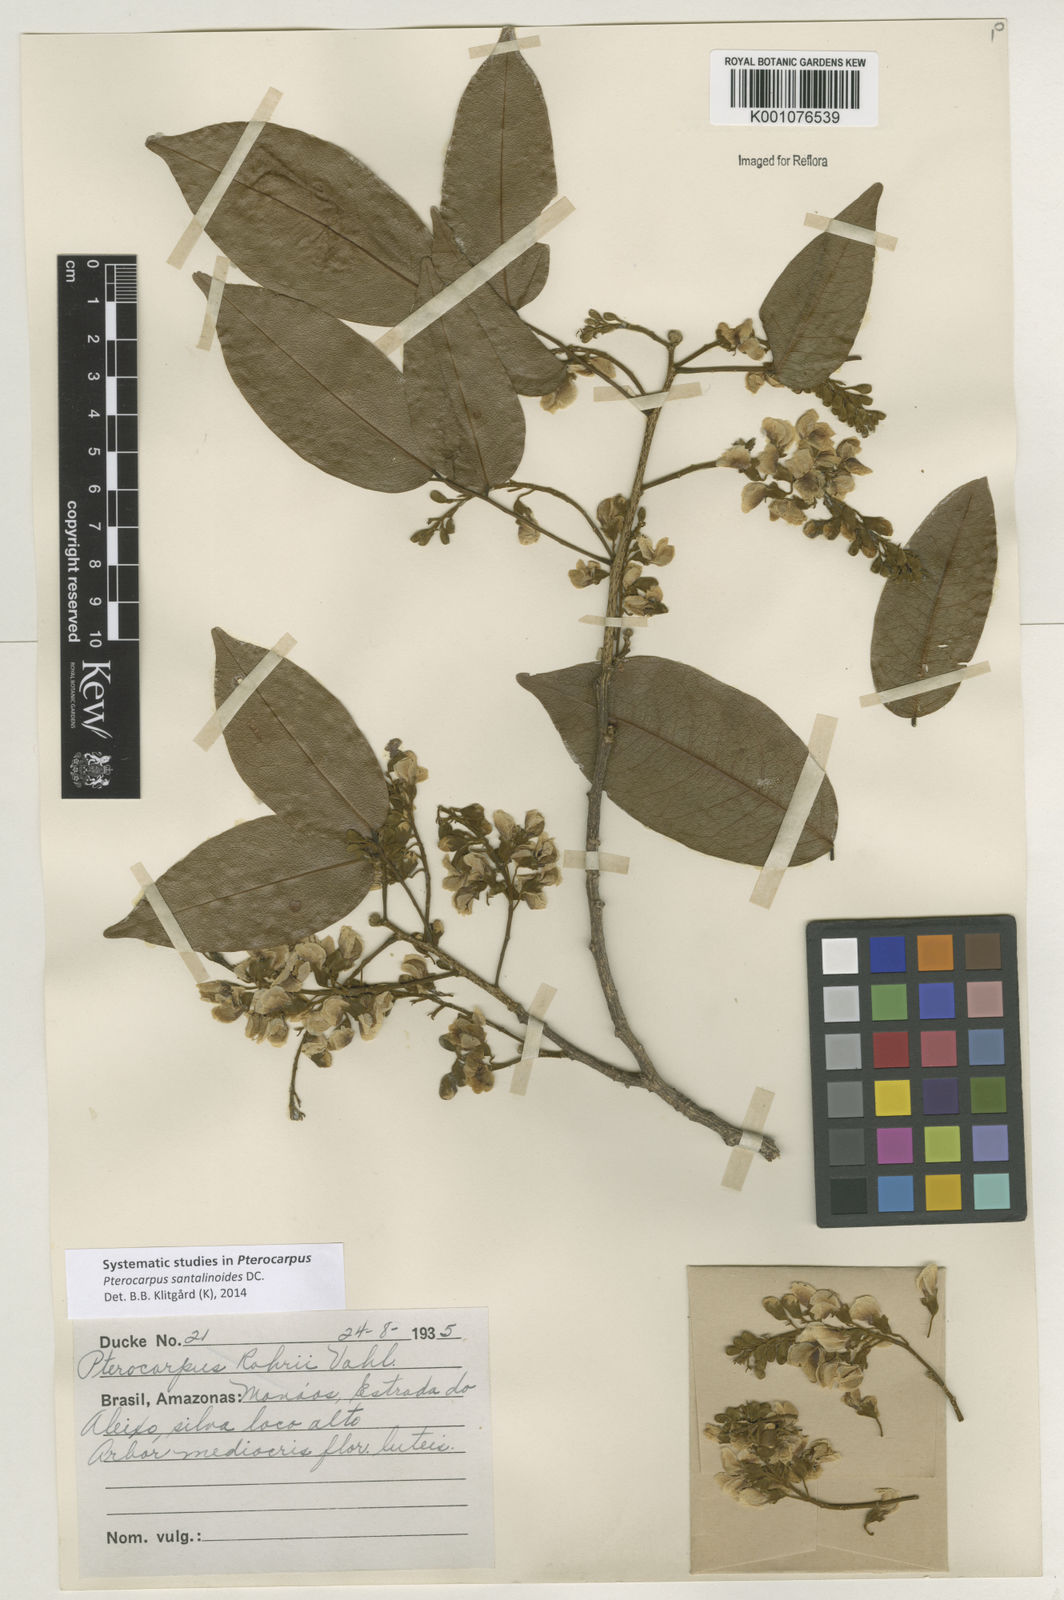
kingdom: Plantae
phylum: Tracheophyta
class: Magnoliopsida
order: Fabales
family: Fabaceae
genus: Pterocarpus
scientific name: Pterocarpus santalinoides
